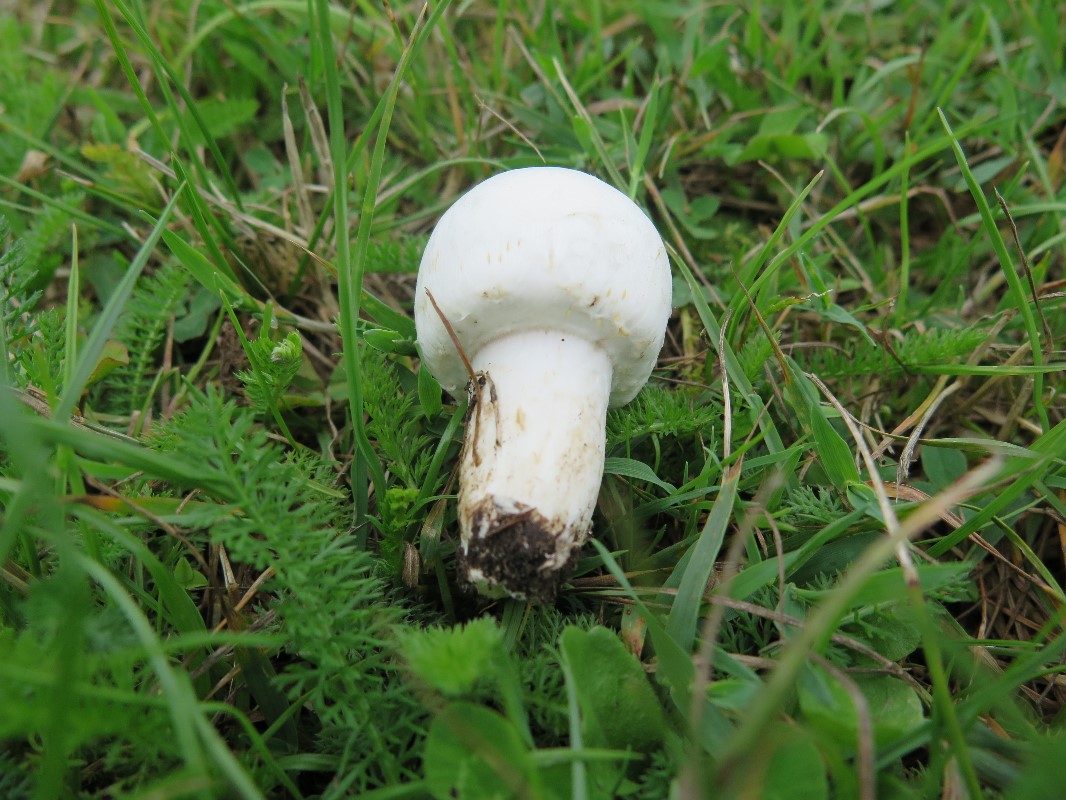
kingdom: Fungi
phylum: Basidiomycota
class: Agaricomycetes
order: Agaricales
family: Agaricaceae
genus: Agaricus
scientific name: Agaricus arvensis
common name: ager-champignon
